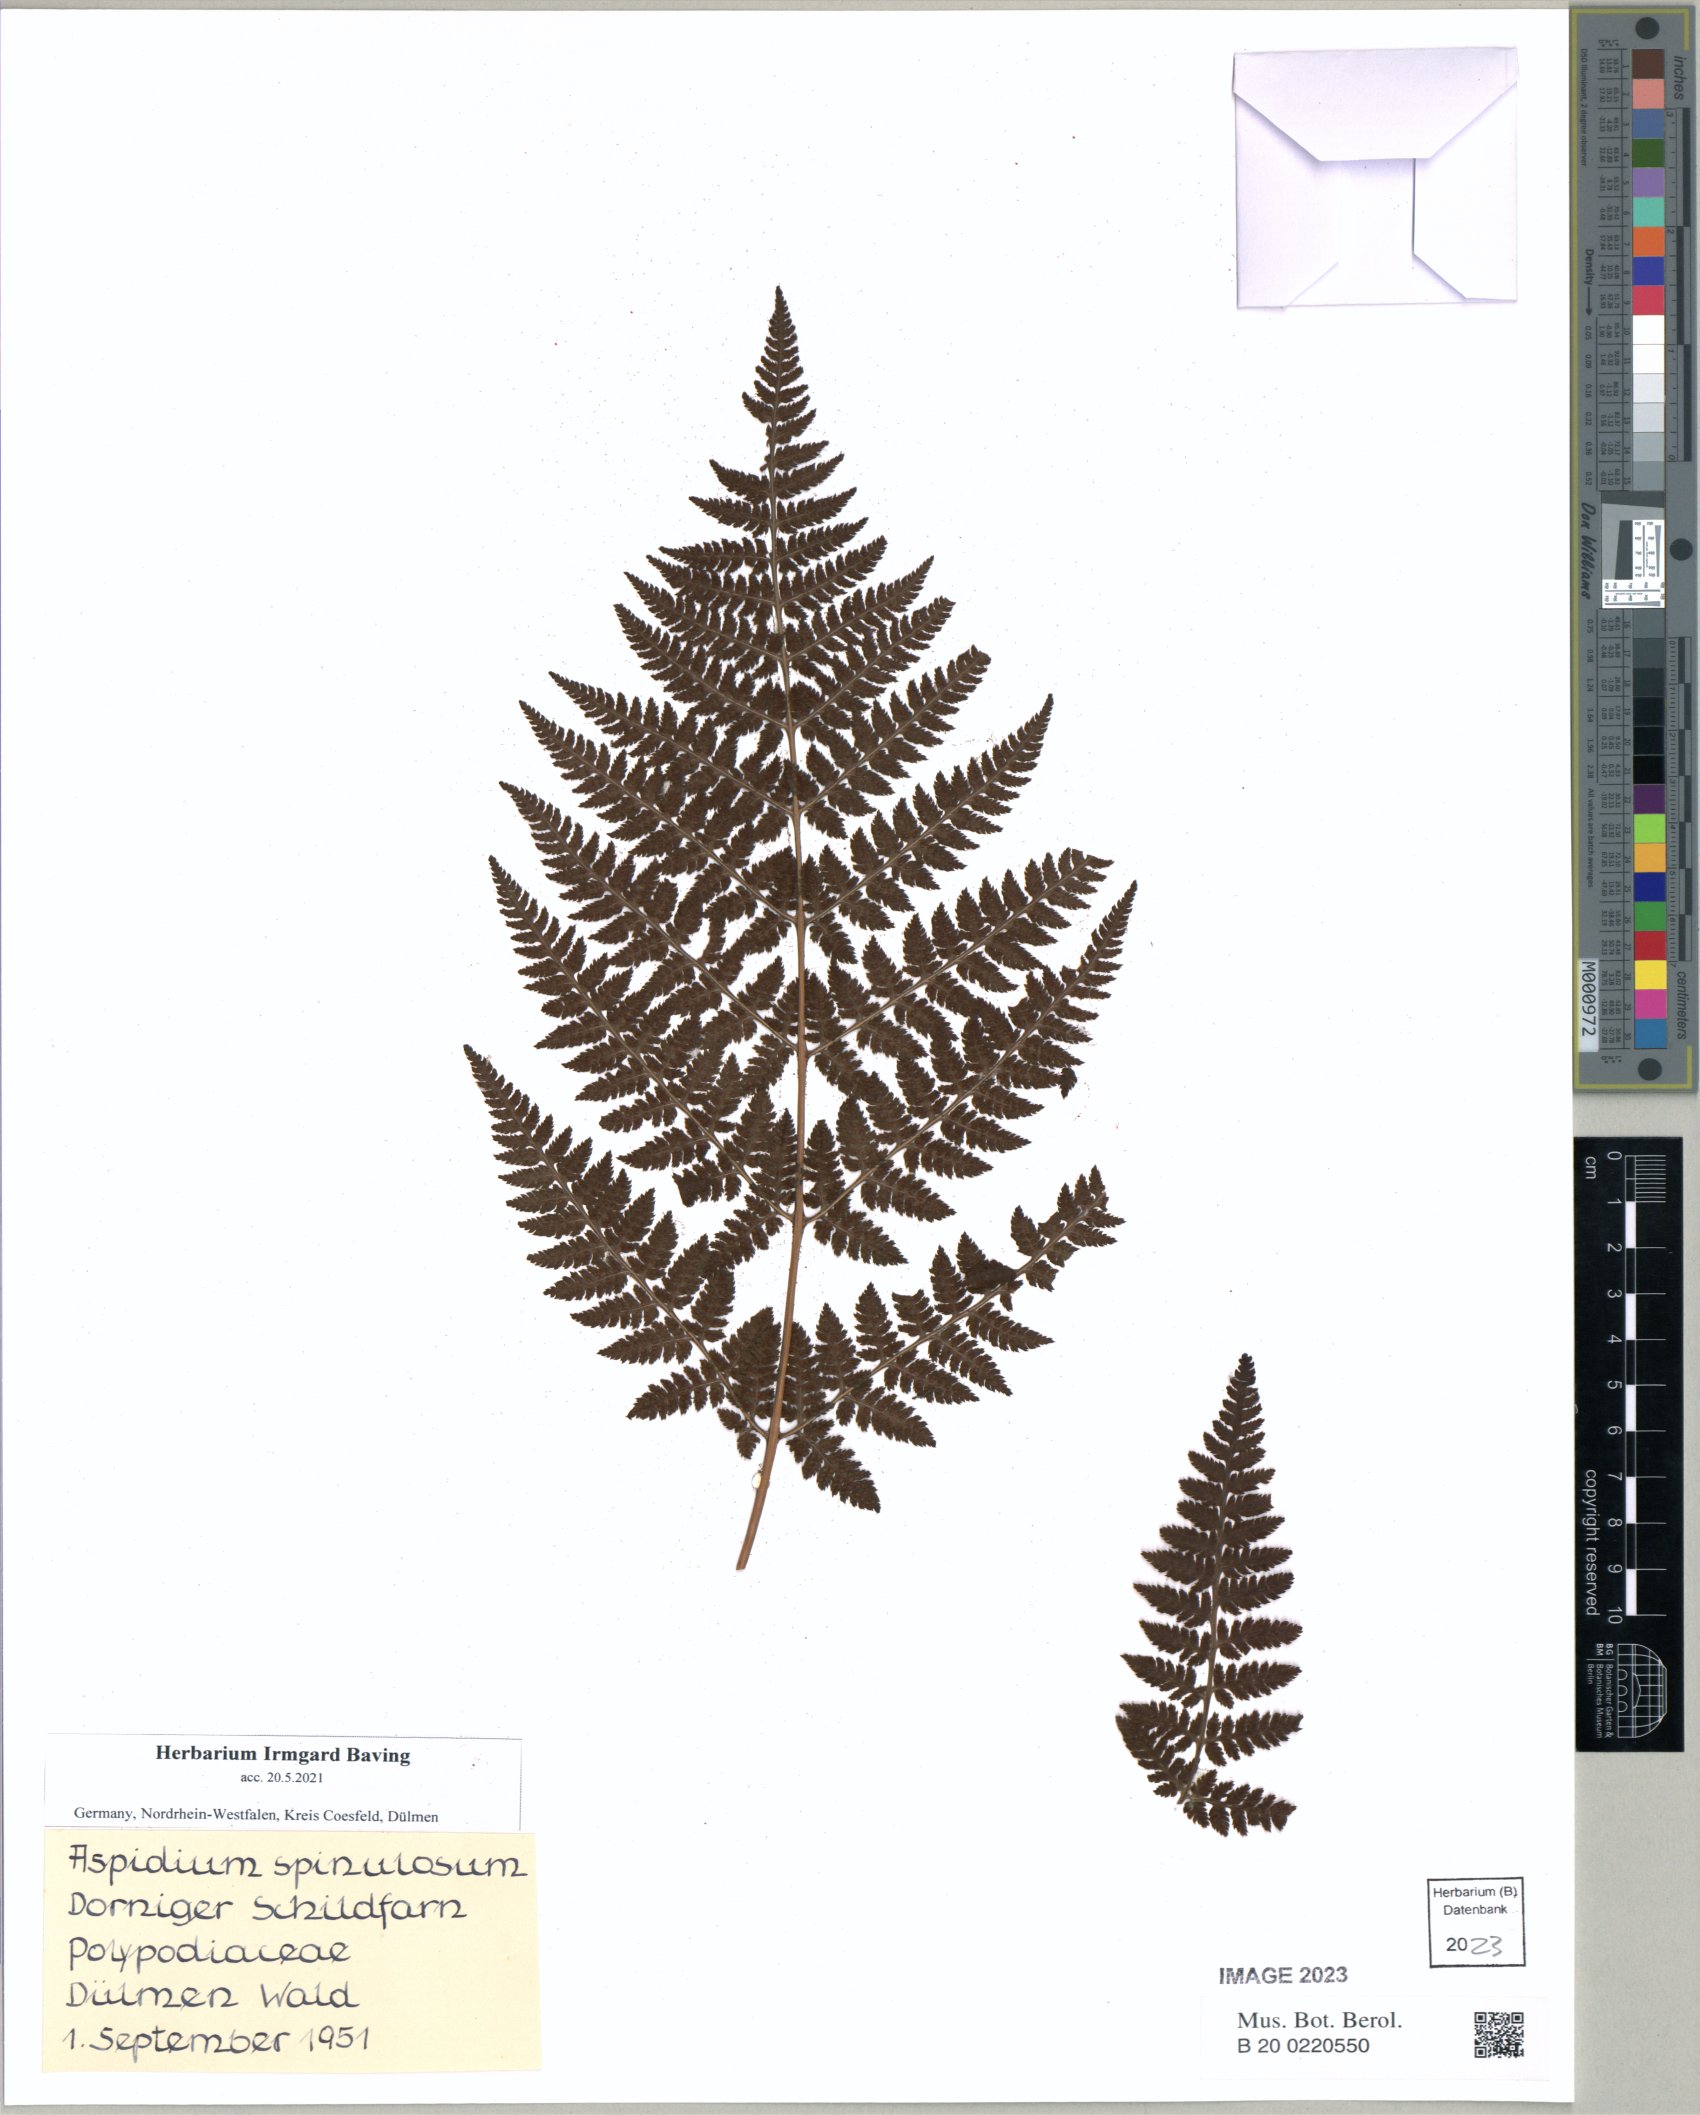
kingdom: Plantae
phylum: Tracheophyta
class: Polypodiopsida
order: Polypodiales
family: Dryopteridaceae
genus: Dryopteris
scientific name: Dryopteris carthusiana
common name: Narrow buckler-fern
